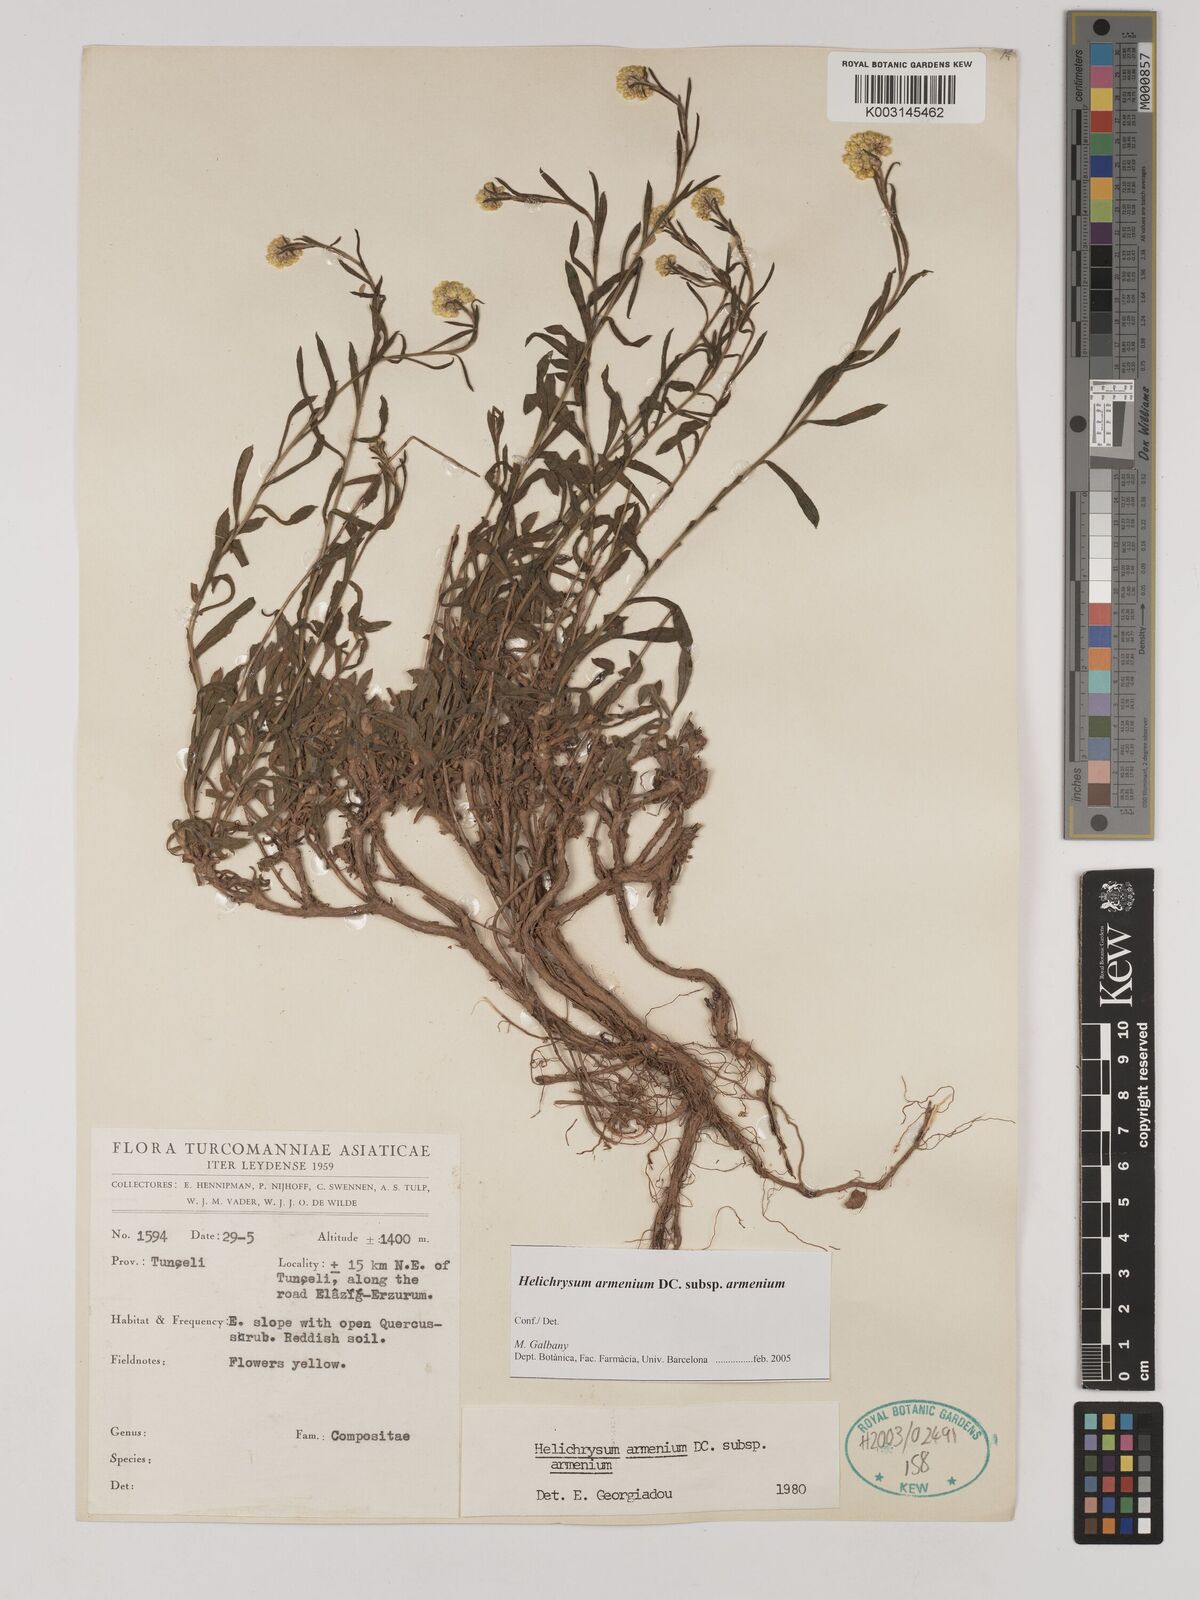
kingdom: Plantae
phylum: Tracheophyta
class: Magnoliopsida
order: Asterales
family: Asteraceae
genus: Helichrysum
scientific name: Helichrysum armenium
